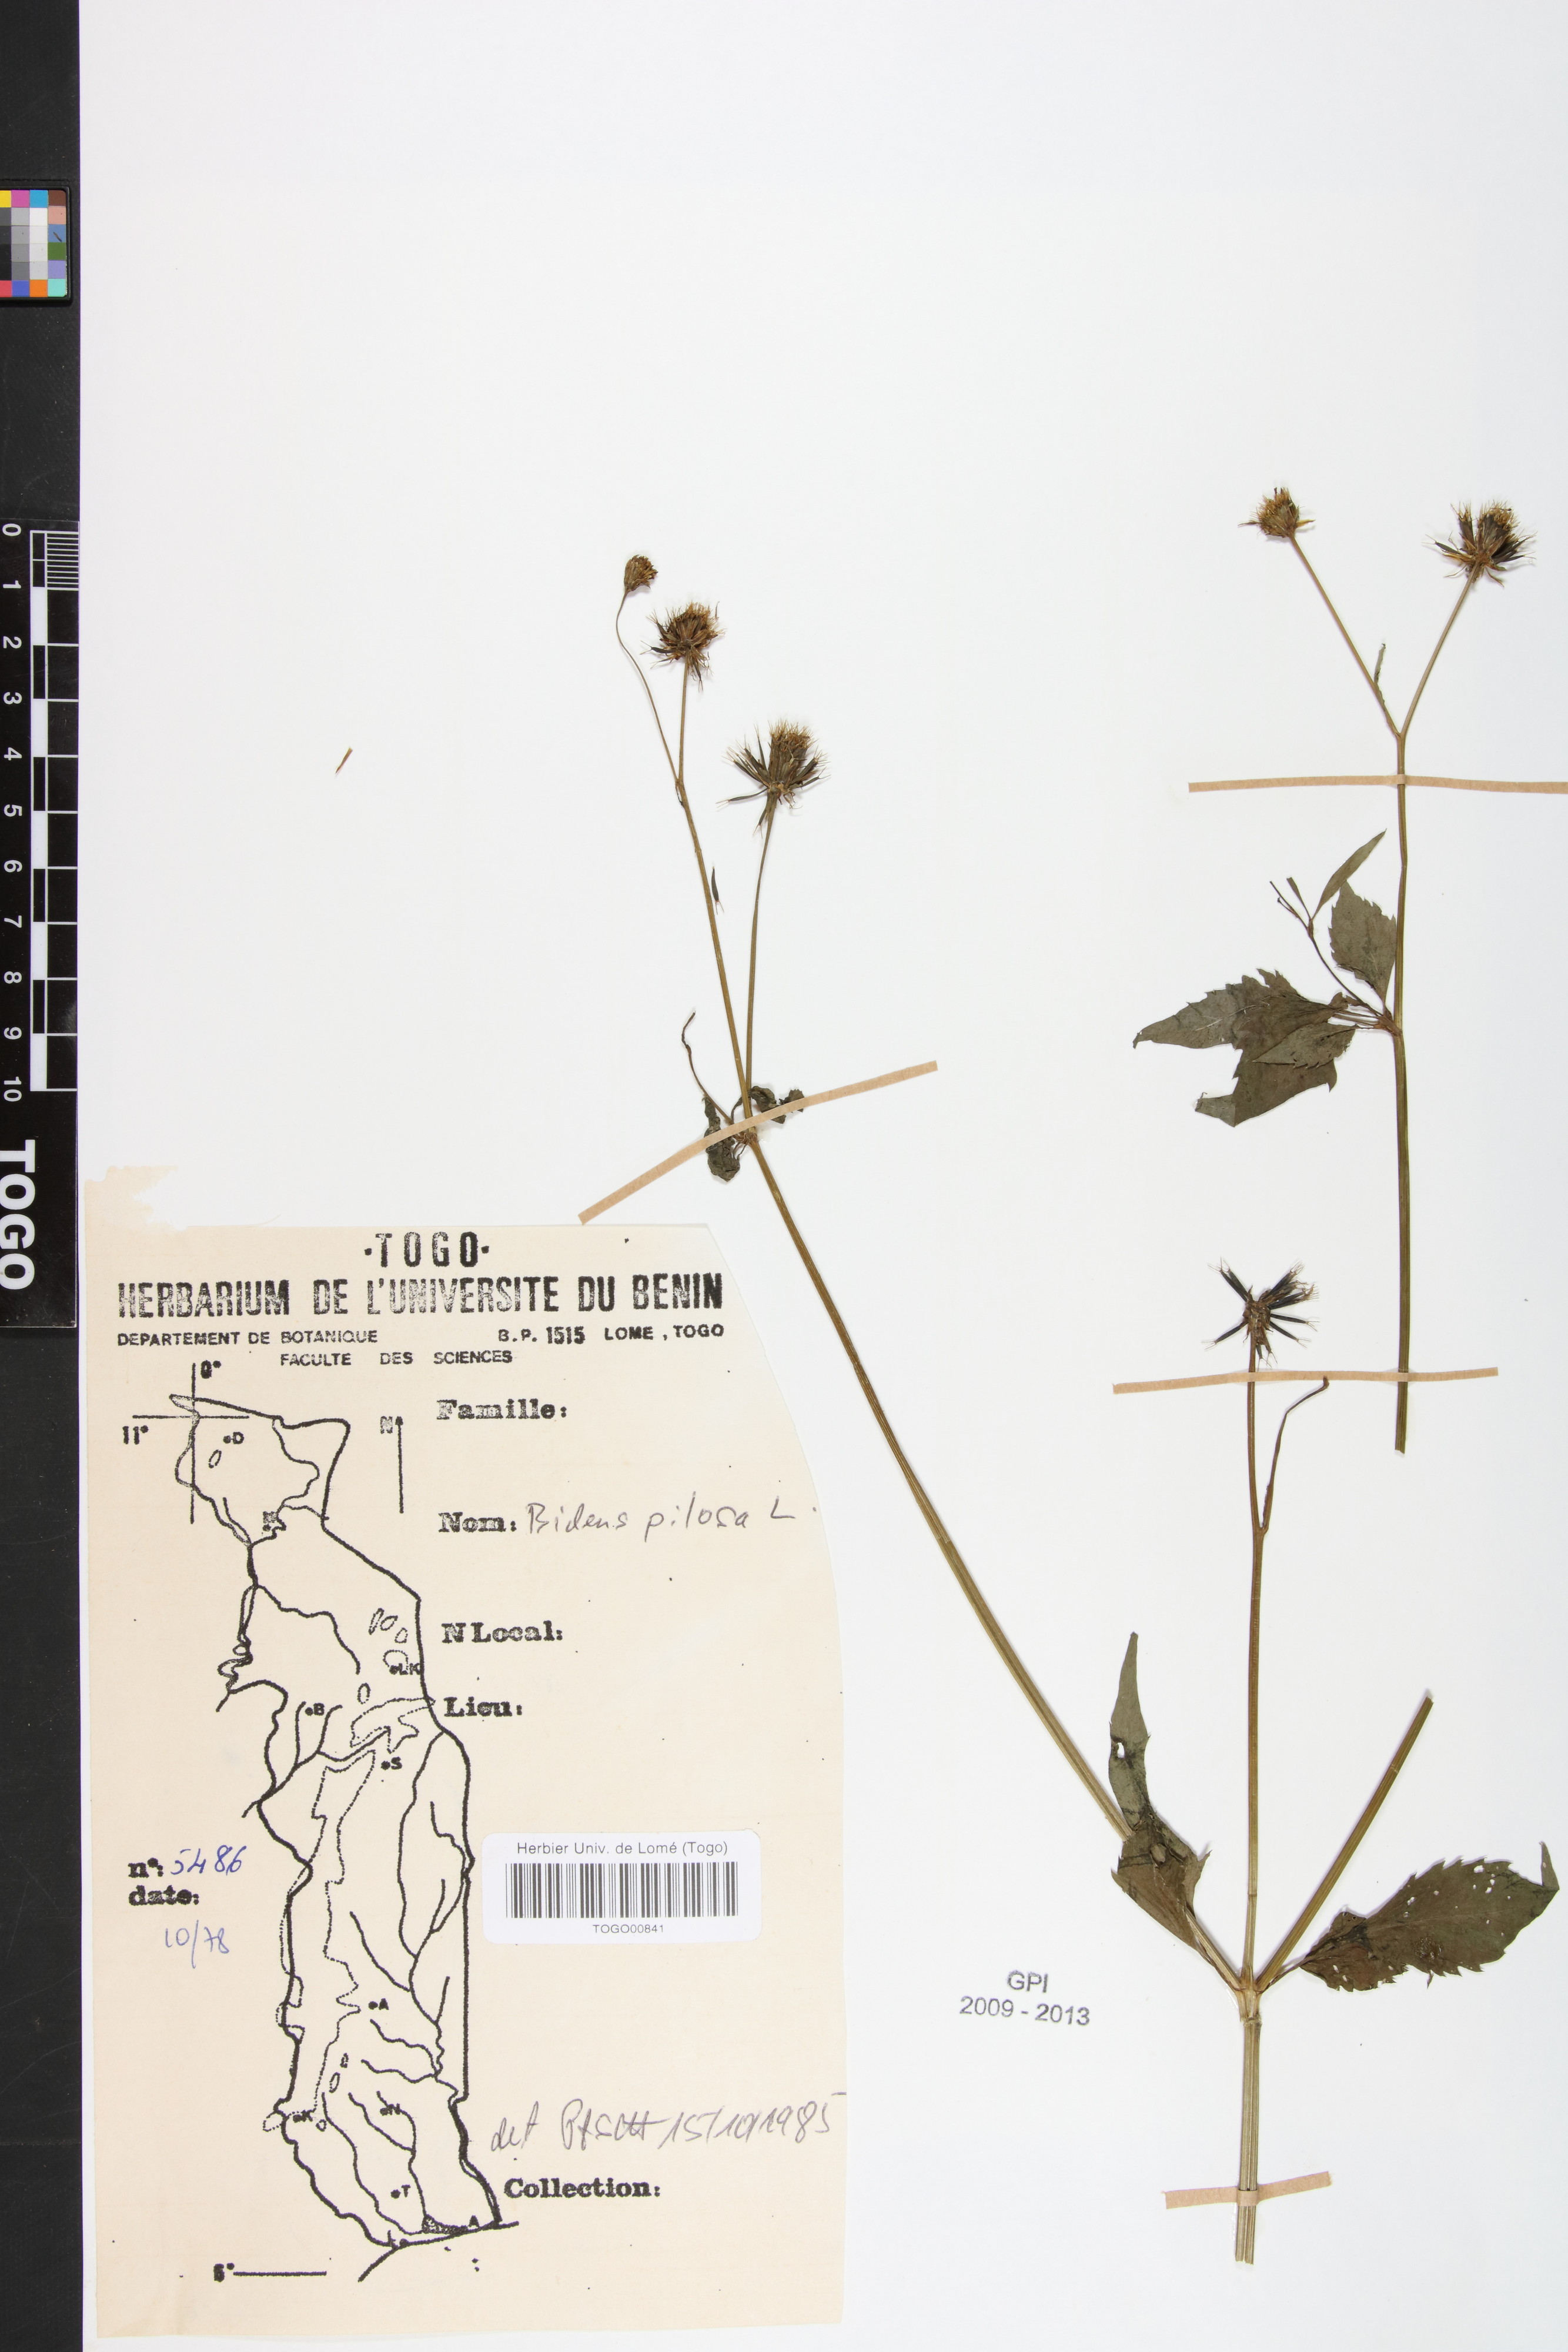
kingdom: Plantae
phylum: Tracheophyta
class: Magnoliopsida
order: Asterales
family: Asteraceae
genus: Bidens
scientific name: Bidens pilosa
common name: Black-jack
